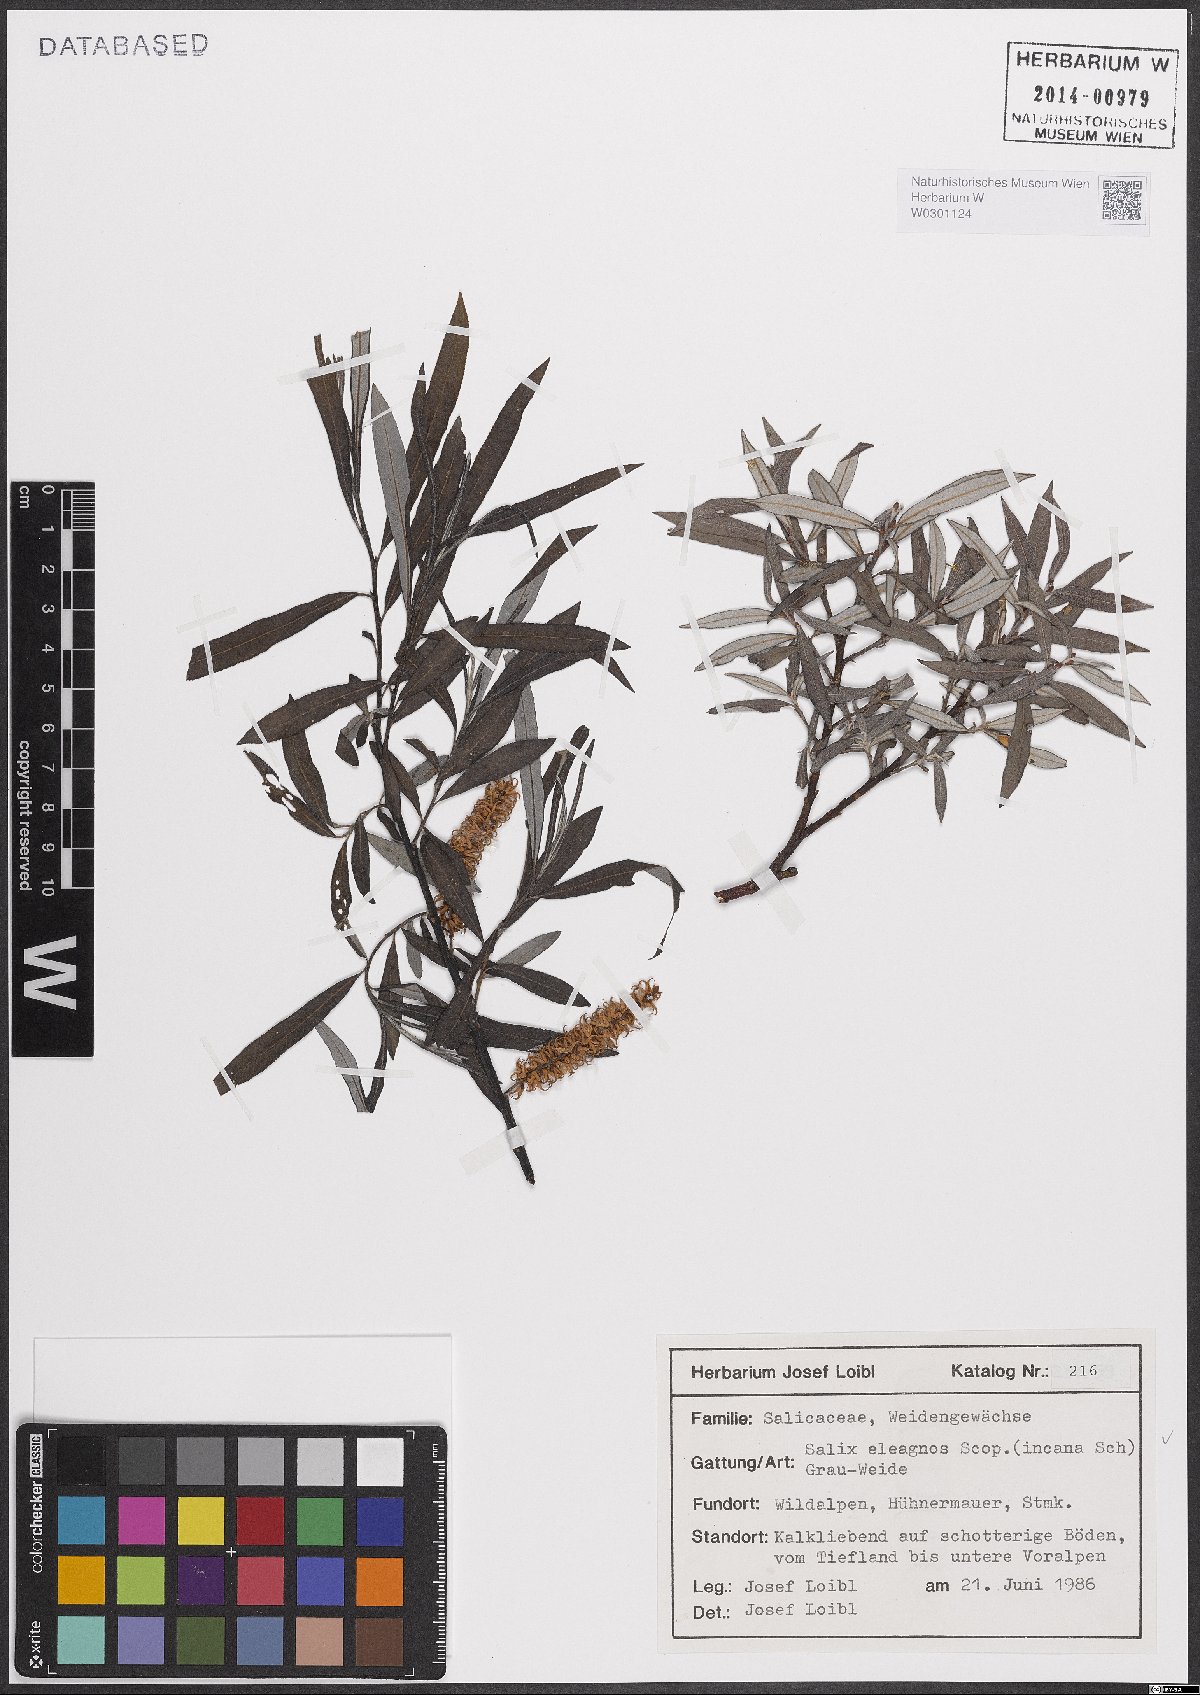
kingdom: Plantae
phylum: Tracheophyta
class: Magnoliopsida
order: Malpighiales
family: Salicaceae
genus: Salix
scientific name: Salix eleagnos
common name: Elaeagnus willow
